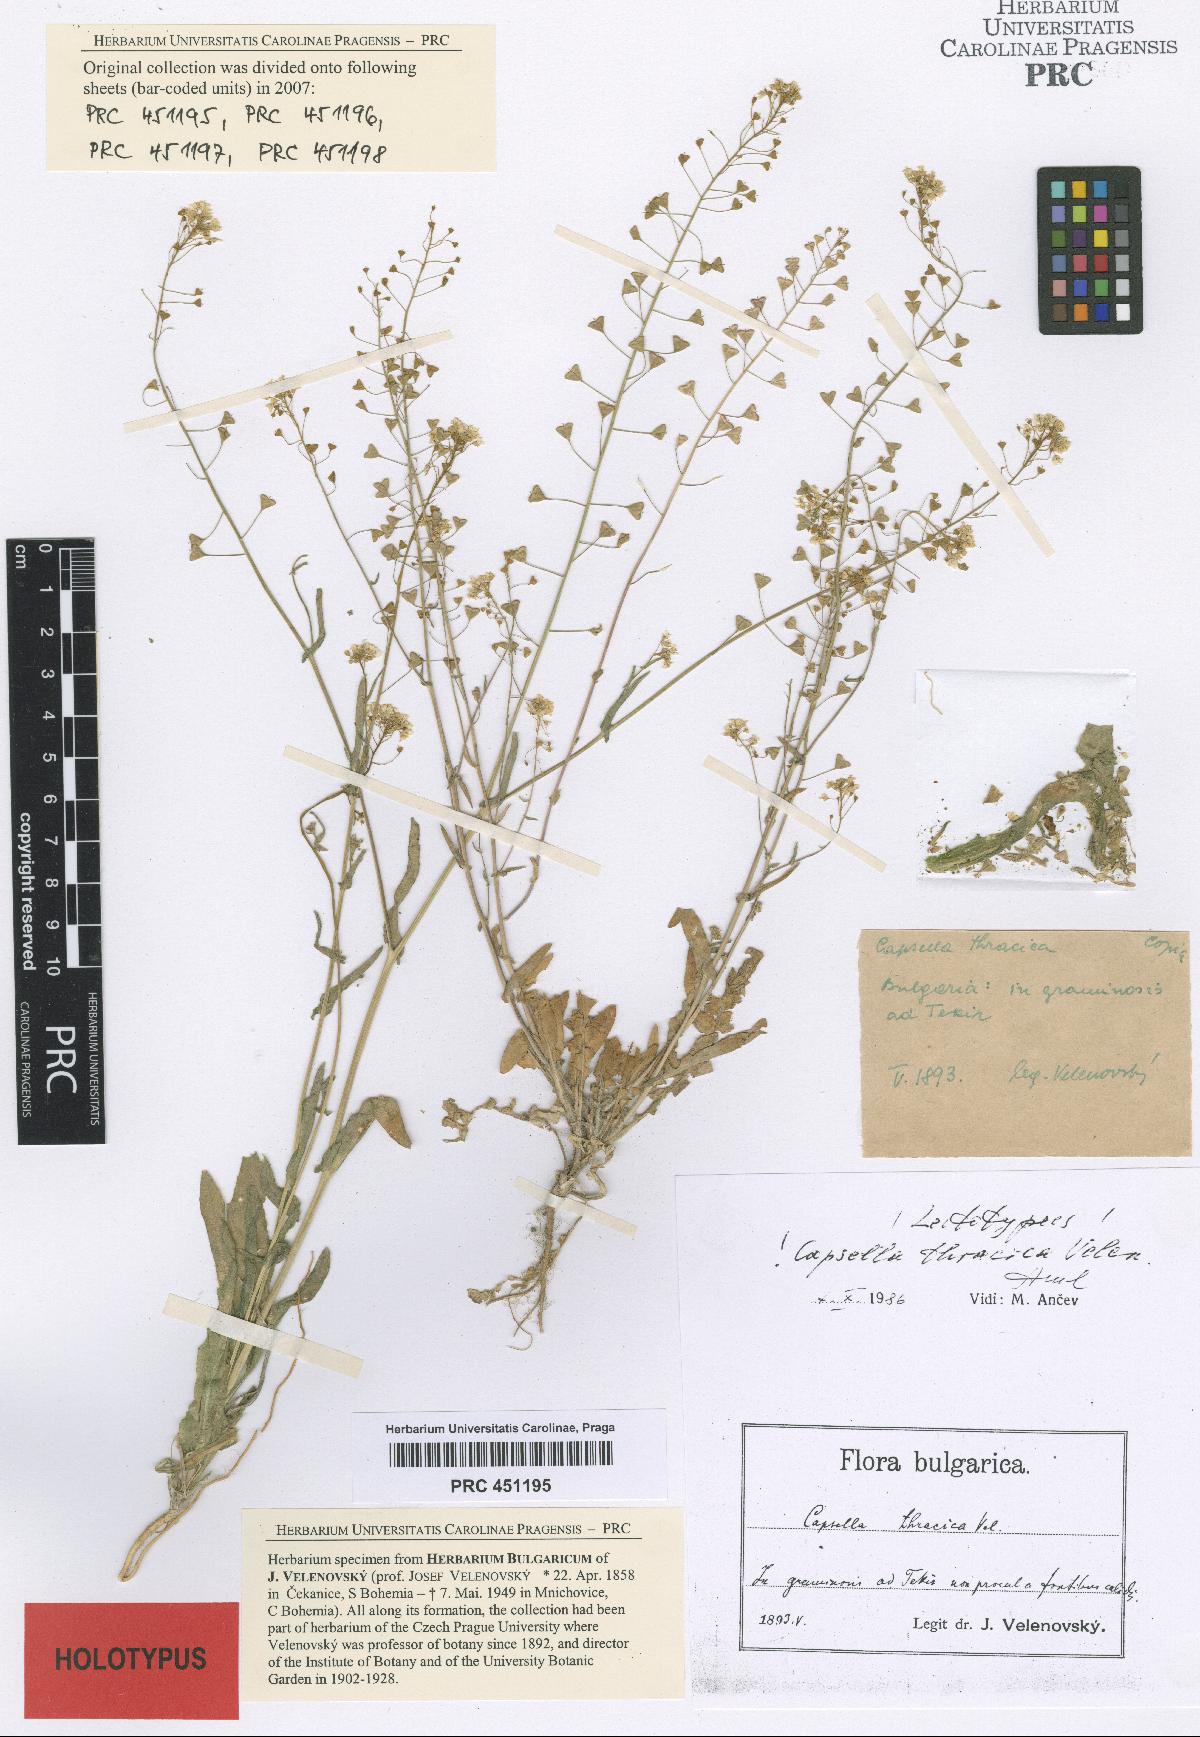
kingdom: Plantae
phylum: Tracheophyta
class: Magnoliopsida
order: Brassicales
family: Brassicaceae
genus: Capsella
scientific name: Capsella thracica
